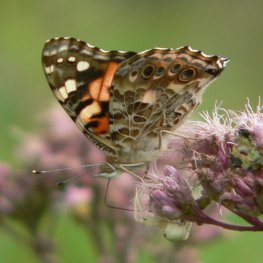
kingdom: Animalia
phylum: Arthropoda
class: Insecta
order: Lepidoptera
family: Nymphalidae
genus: Vanessa
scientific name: Vanessa cardui
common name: Painted Lady
